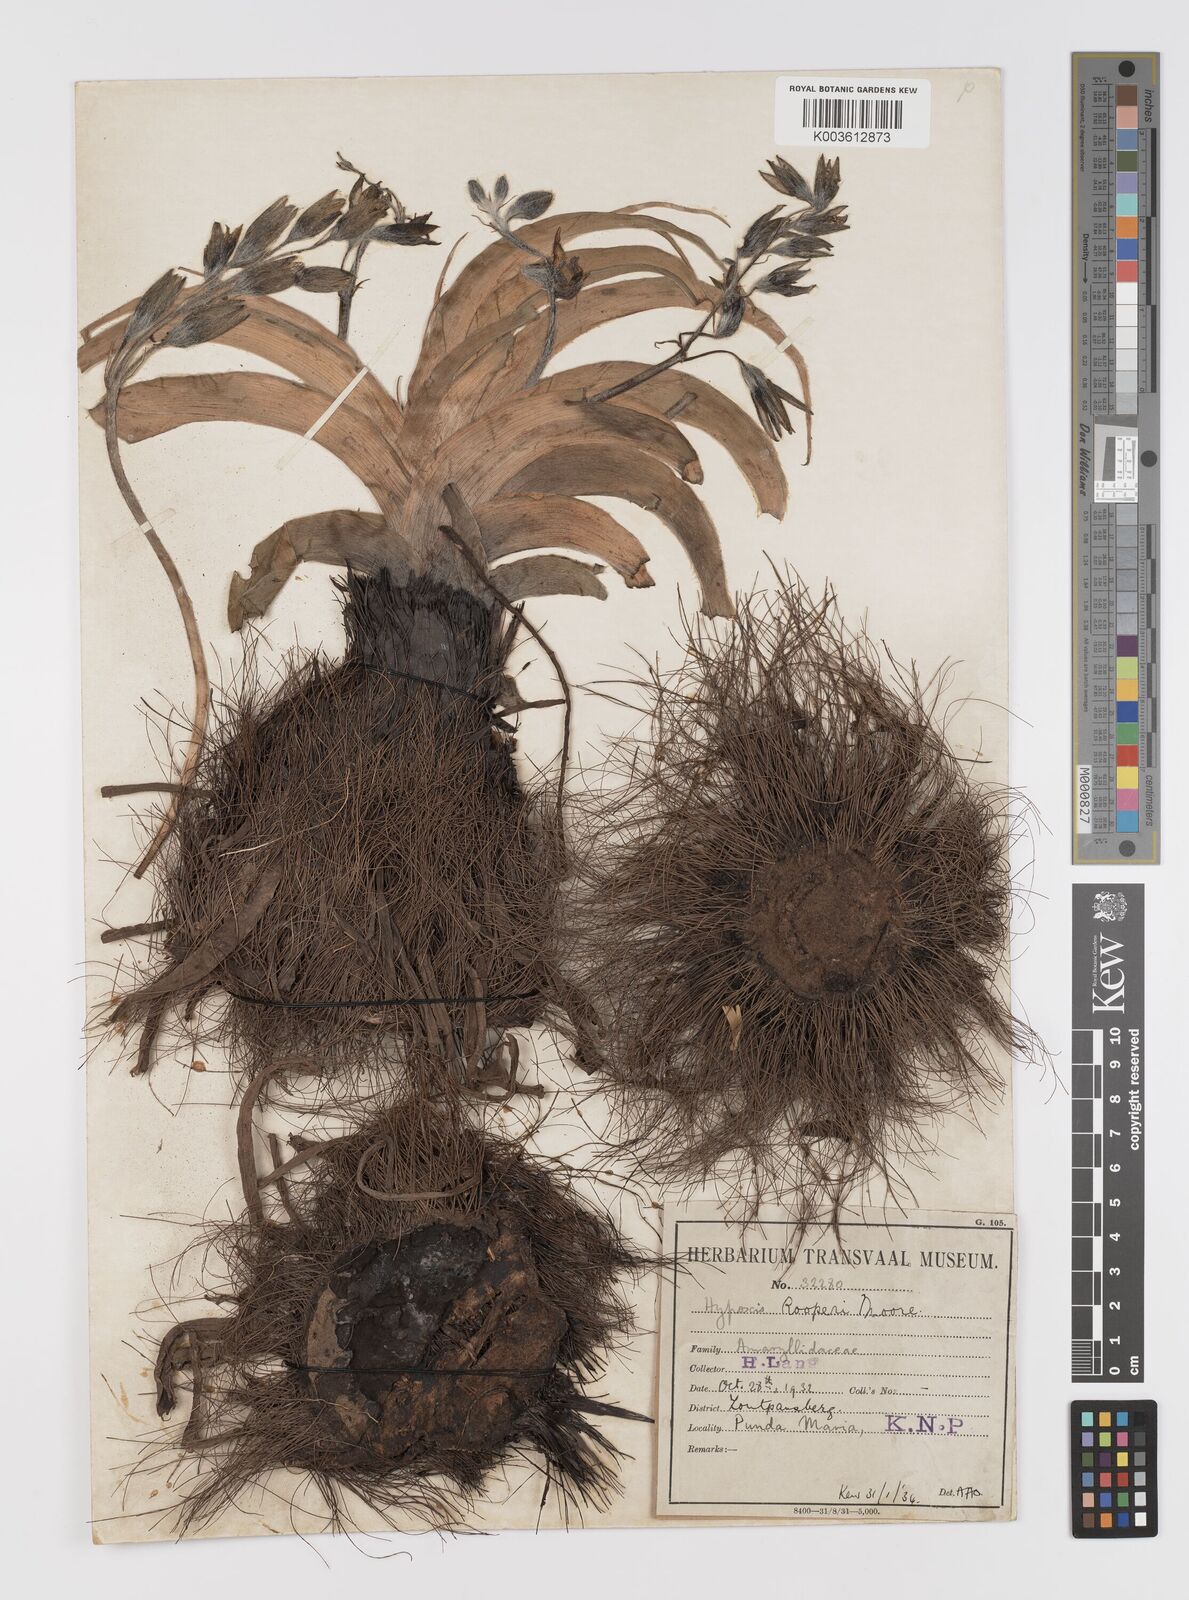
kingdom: Plantae
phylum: Tracheophyta
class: Liliopsida
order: Asparagales
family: Hypoxidaceae
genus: Hypoxis
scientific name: Hypoxis hemerocallidea
